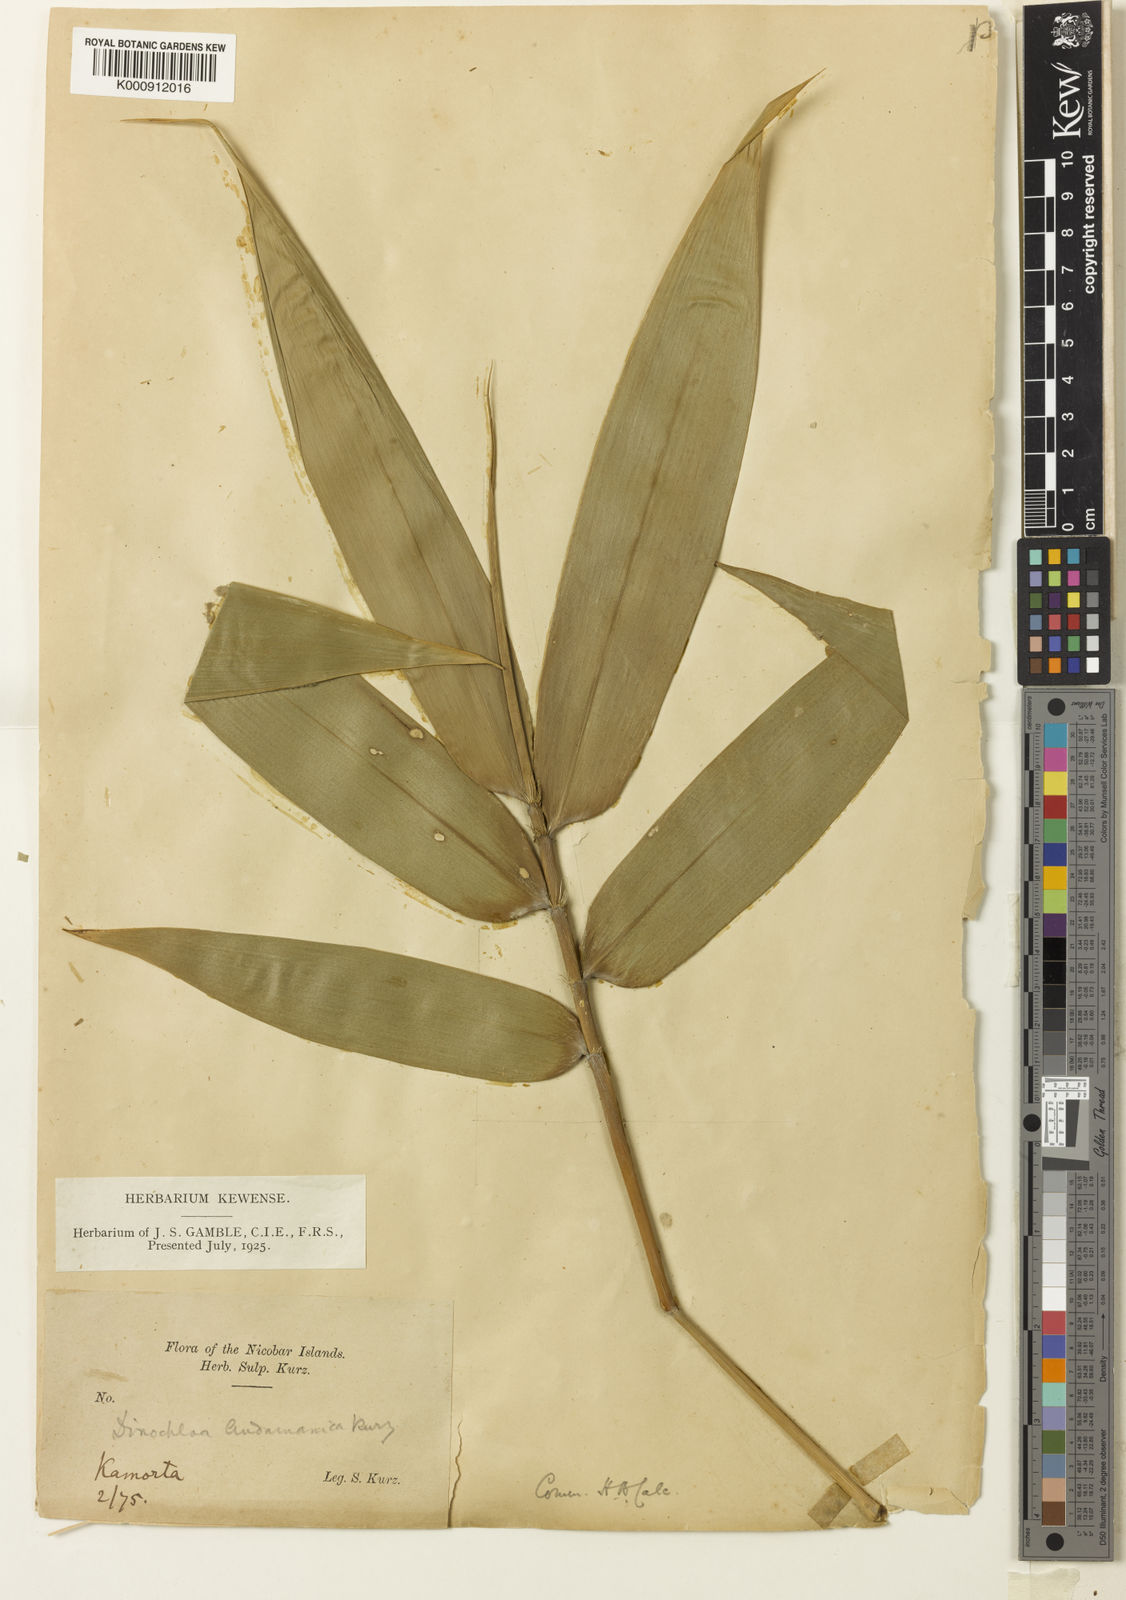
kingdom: Plantae
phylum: Tracheophyta
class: Liliopsida
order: Poales
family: Poaceae
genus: Dinochloa
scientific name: Dinochloa andamanica
